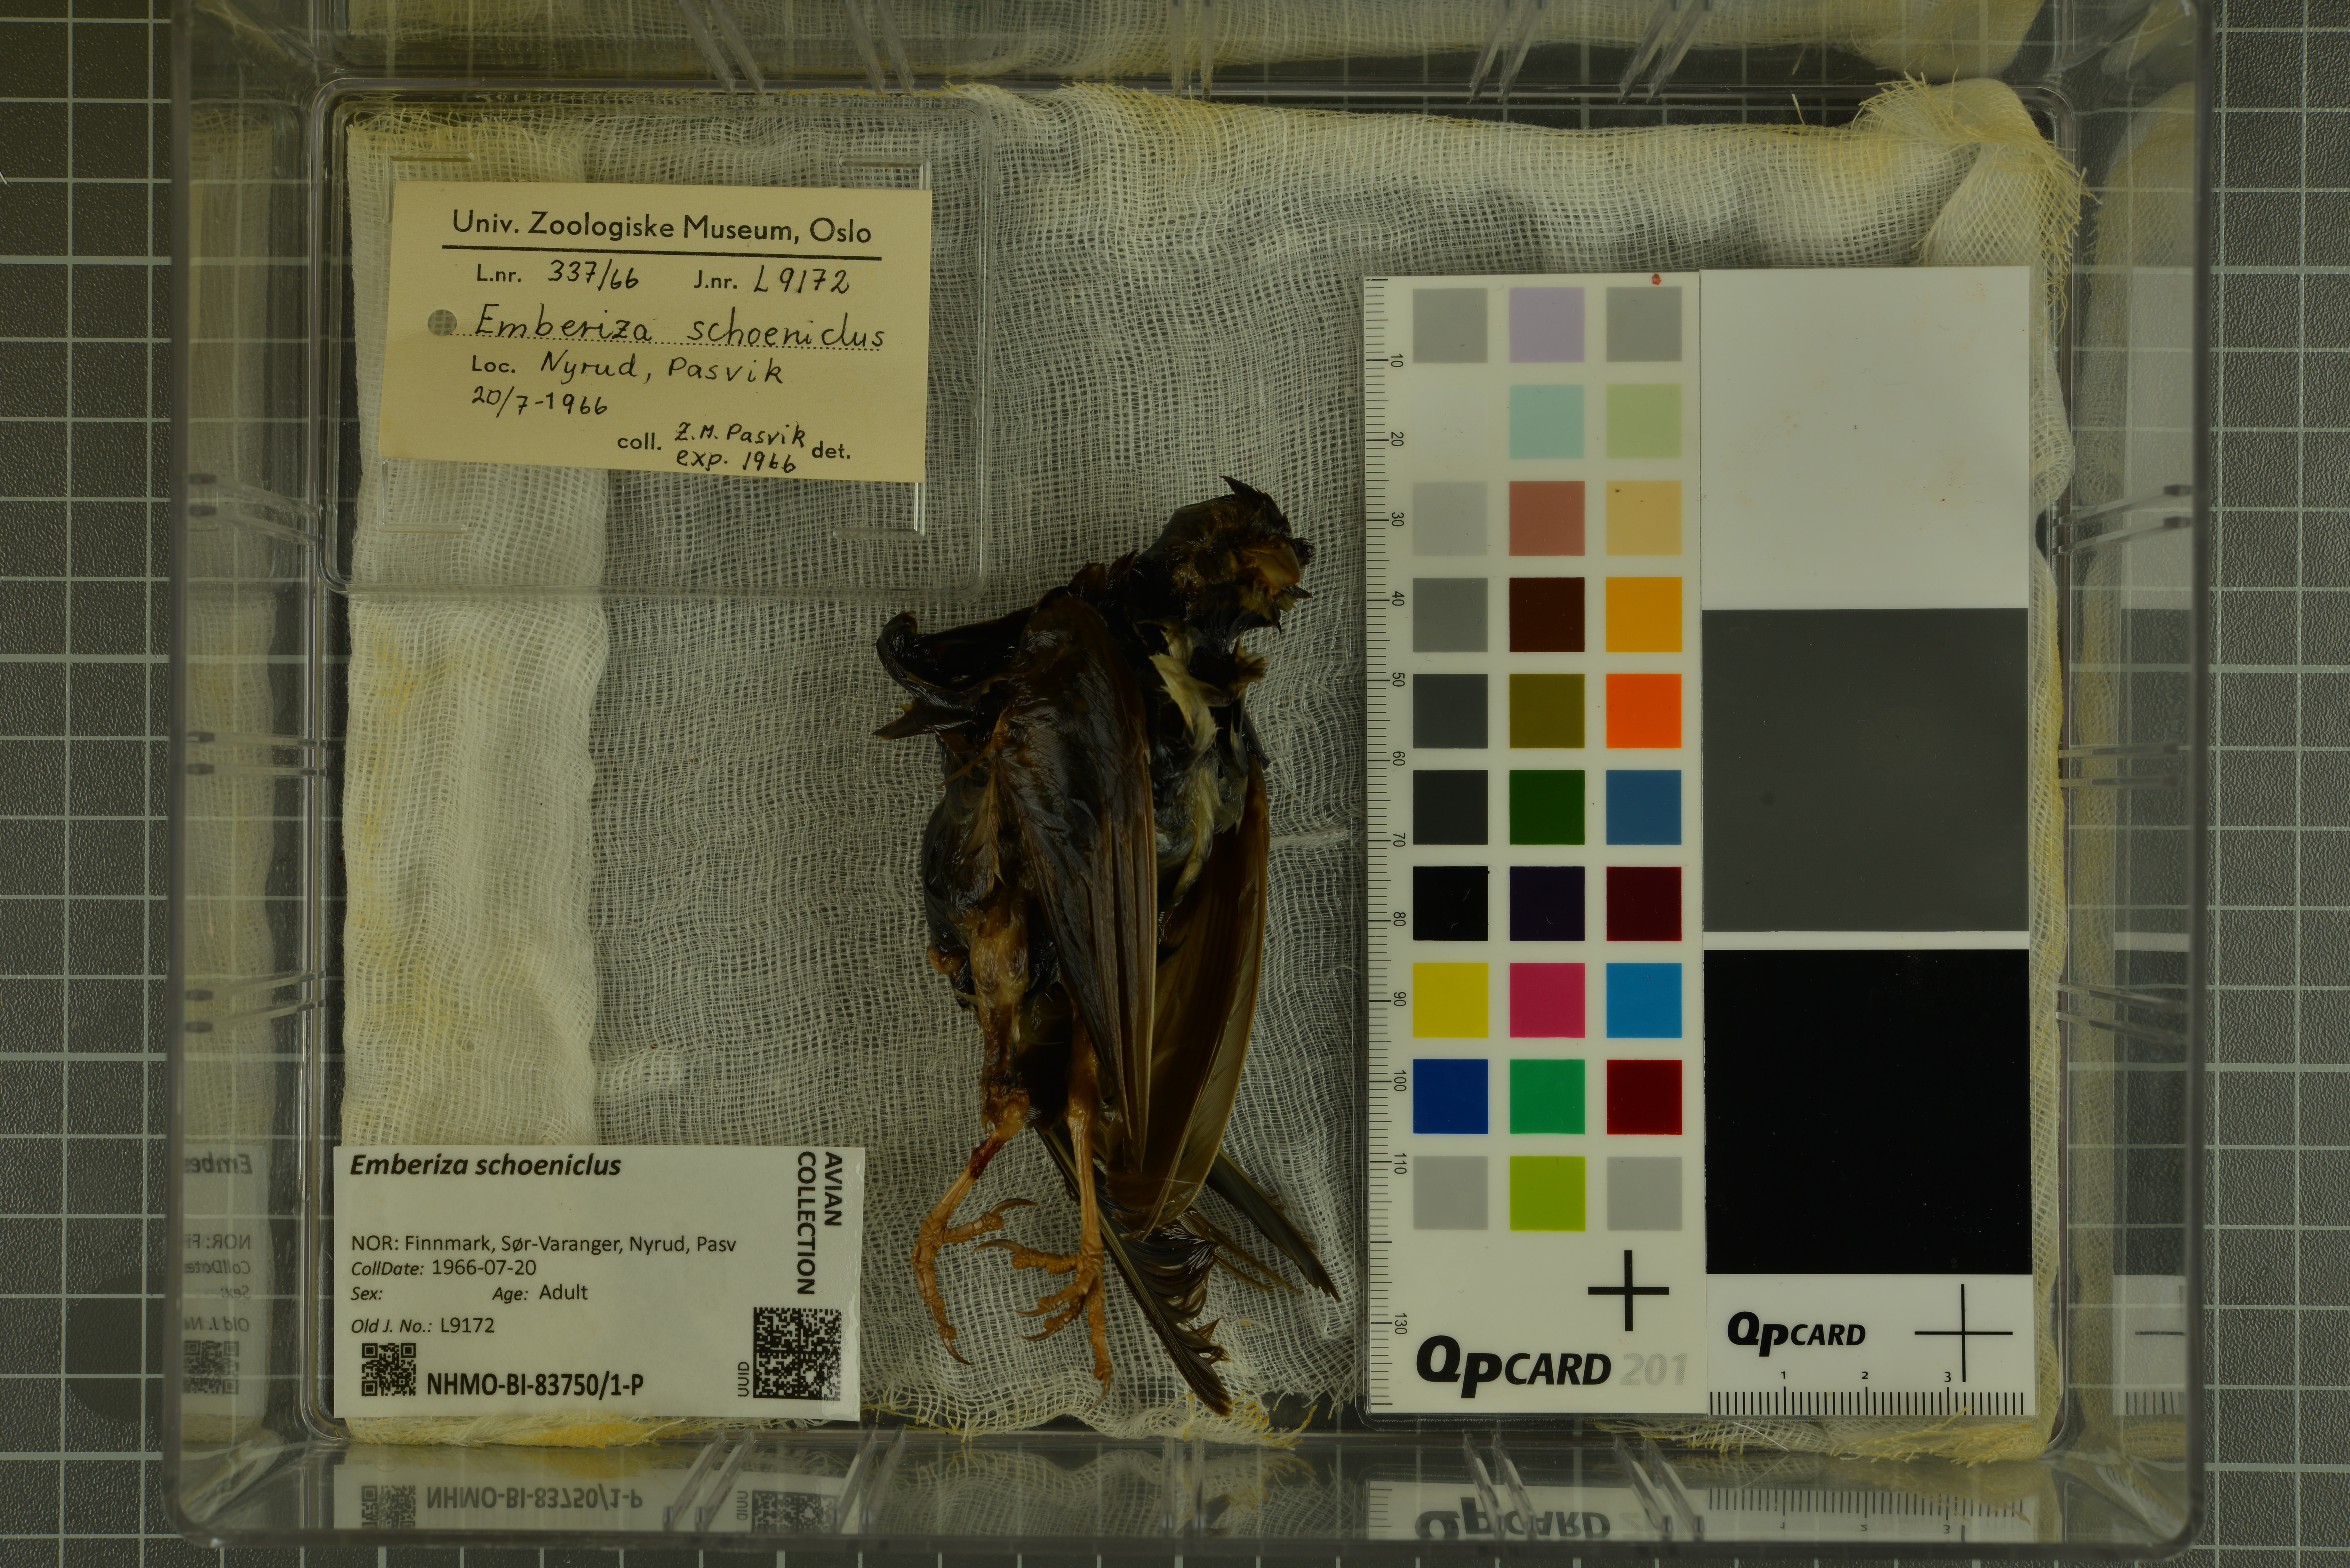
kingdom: Animalia
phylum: Chordata
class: Aves
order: Passeriformes
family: Emberizidae
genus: Emberiza
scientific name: Emberiza schoeniclus
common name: Reed bunting
